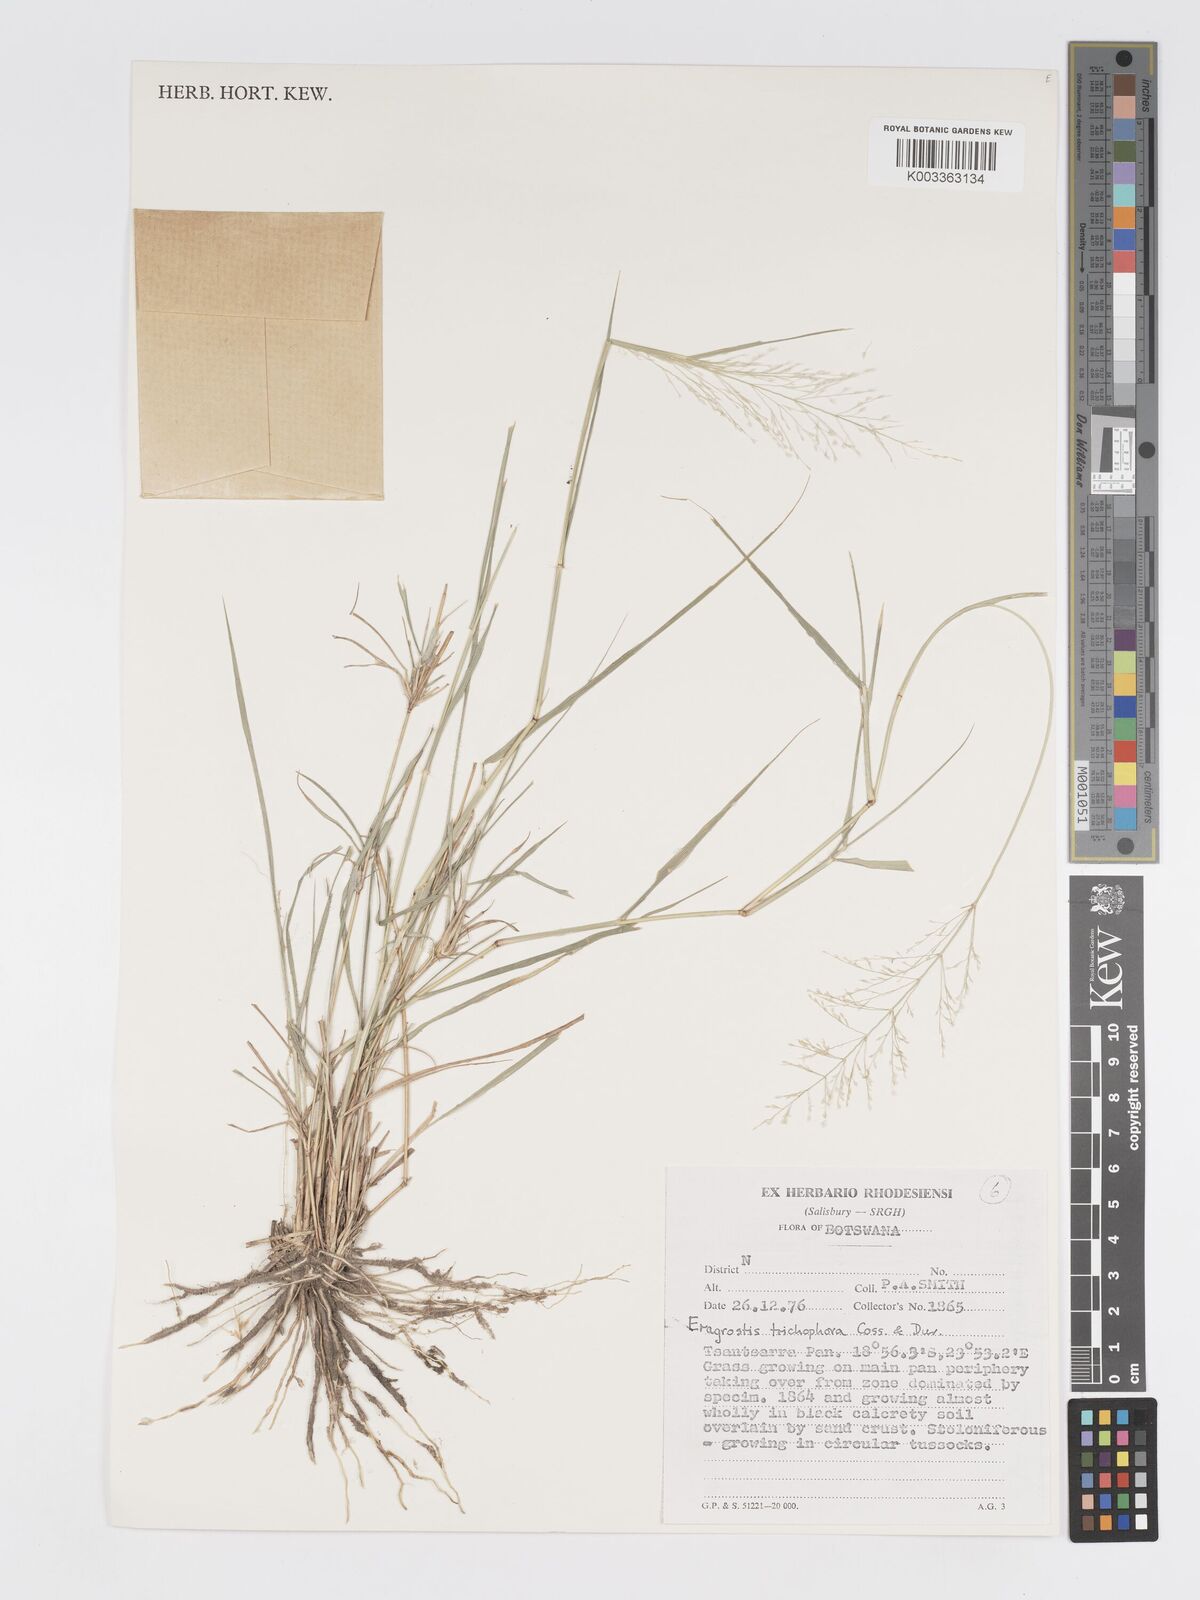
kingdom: Plantae
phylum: Tracheophyta
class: Liliopsida
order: Poales
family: Poaceae
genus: Eragrostis
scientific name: Eragrostis cylindriflora
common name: Cylinderflower lovegrass
